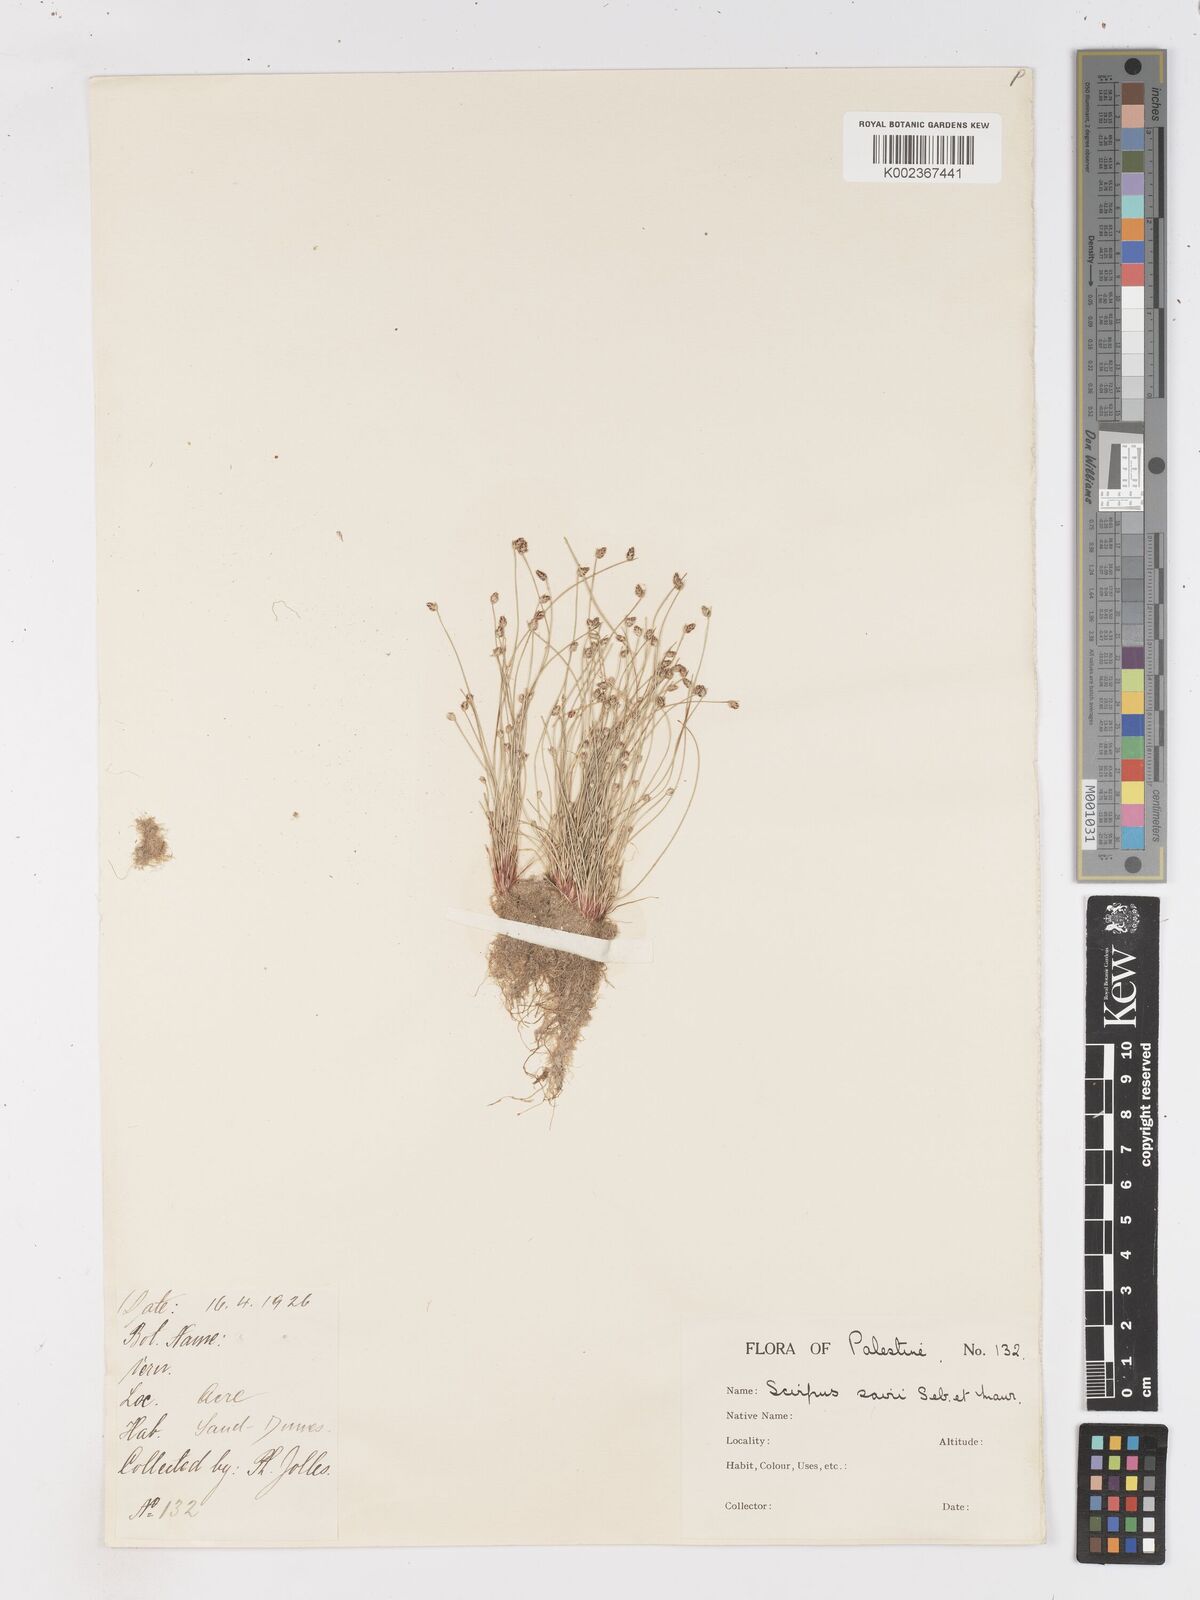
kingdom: Plantae
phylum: Tracheophyta
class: Liliopsida
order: Poales
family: Cyperaceae
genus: Isolepis
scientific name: Isolepis cernua
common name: Slender club-rush
